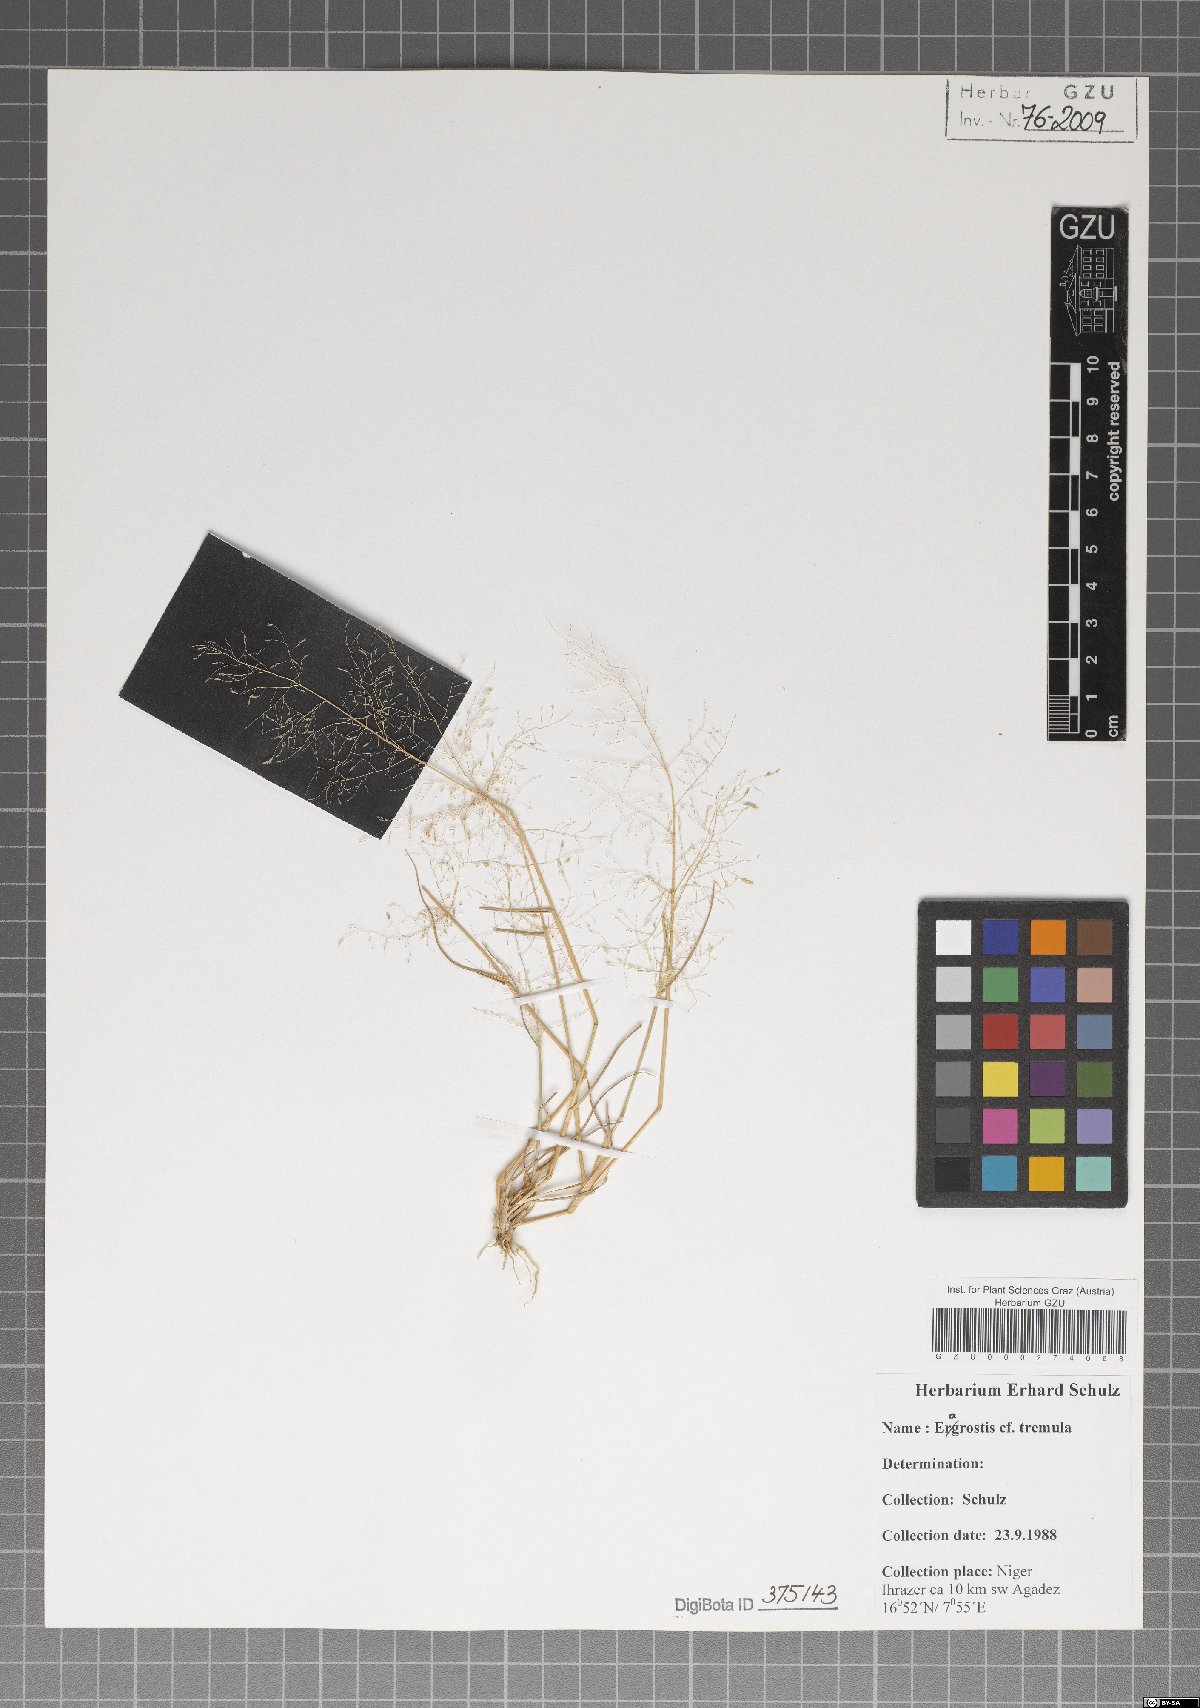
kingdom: Plantae
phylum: Tracheophyta
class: Liliopsida
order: Poales
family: Poaceae
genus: Eragrostis
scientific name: Eragrostis tremula
